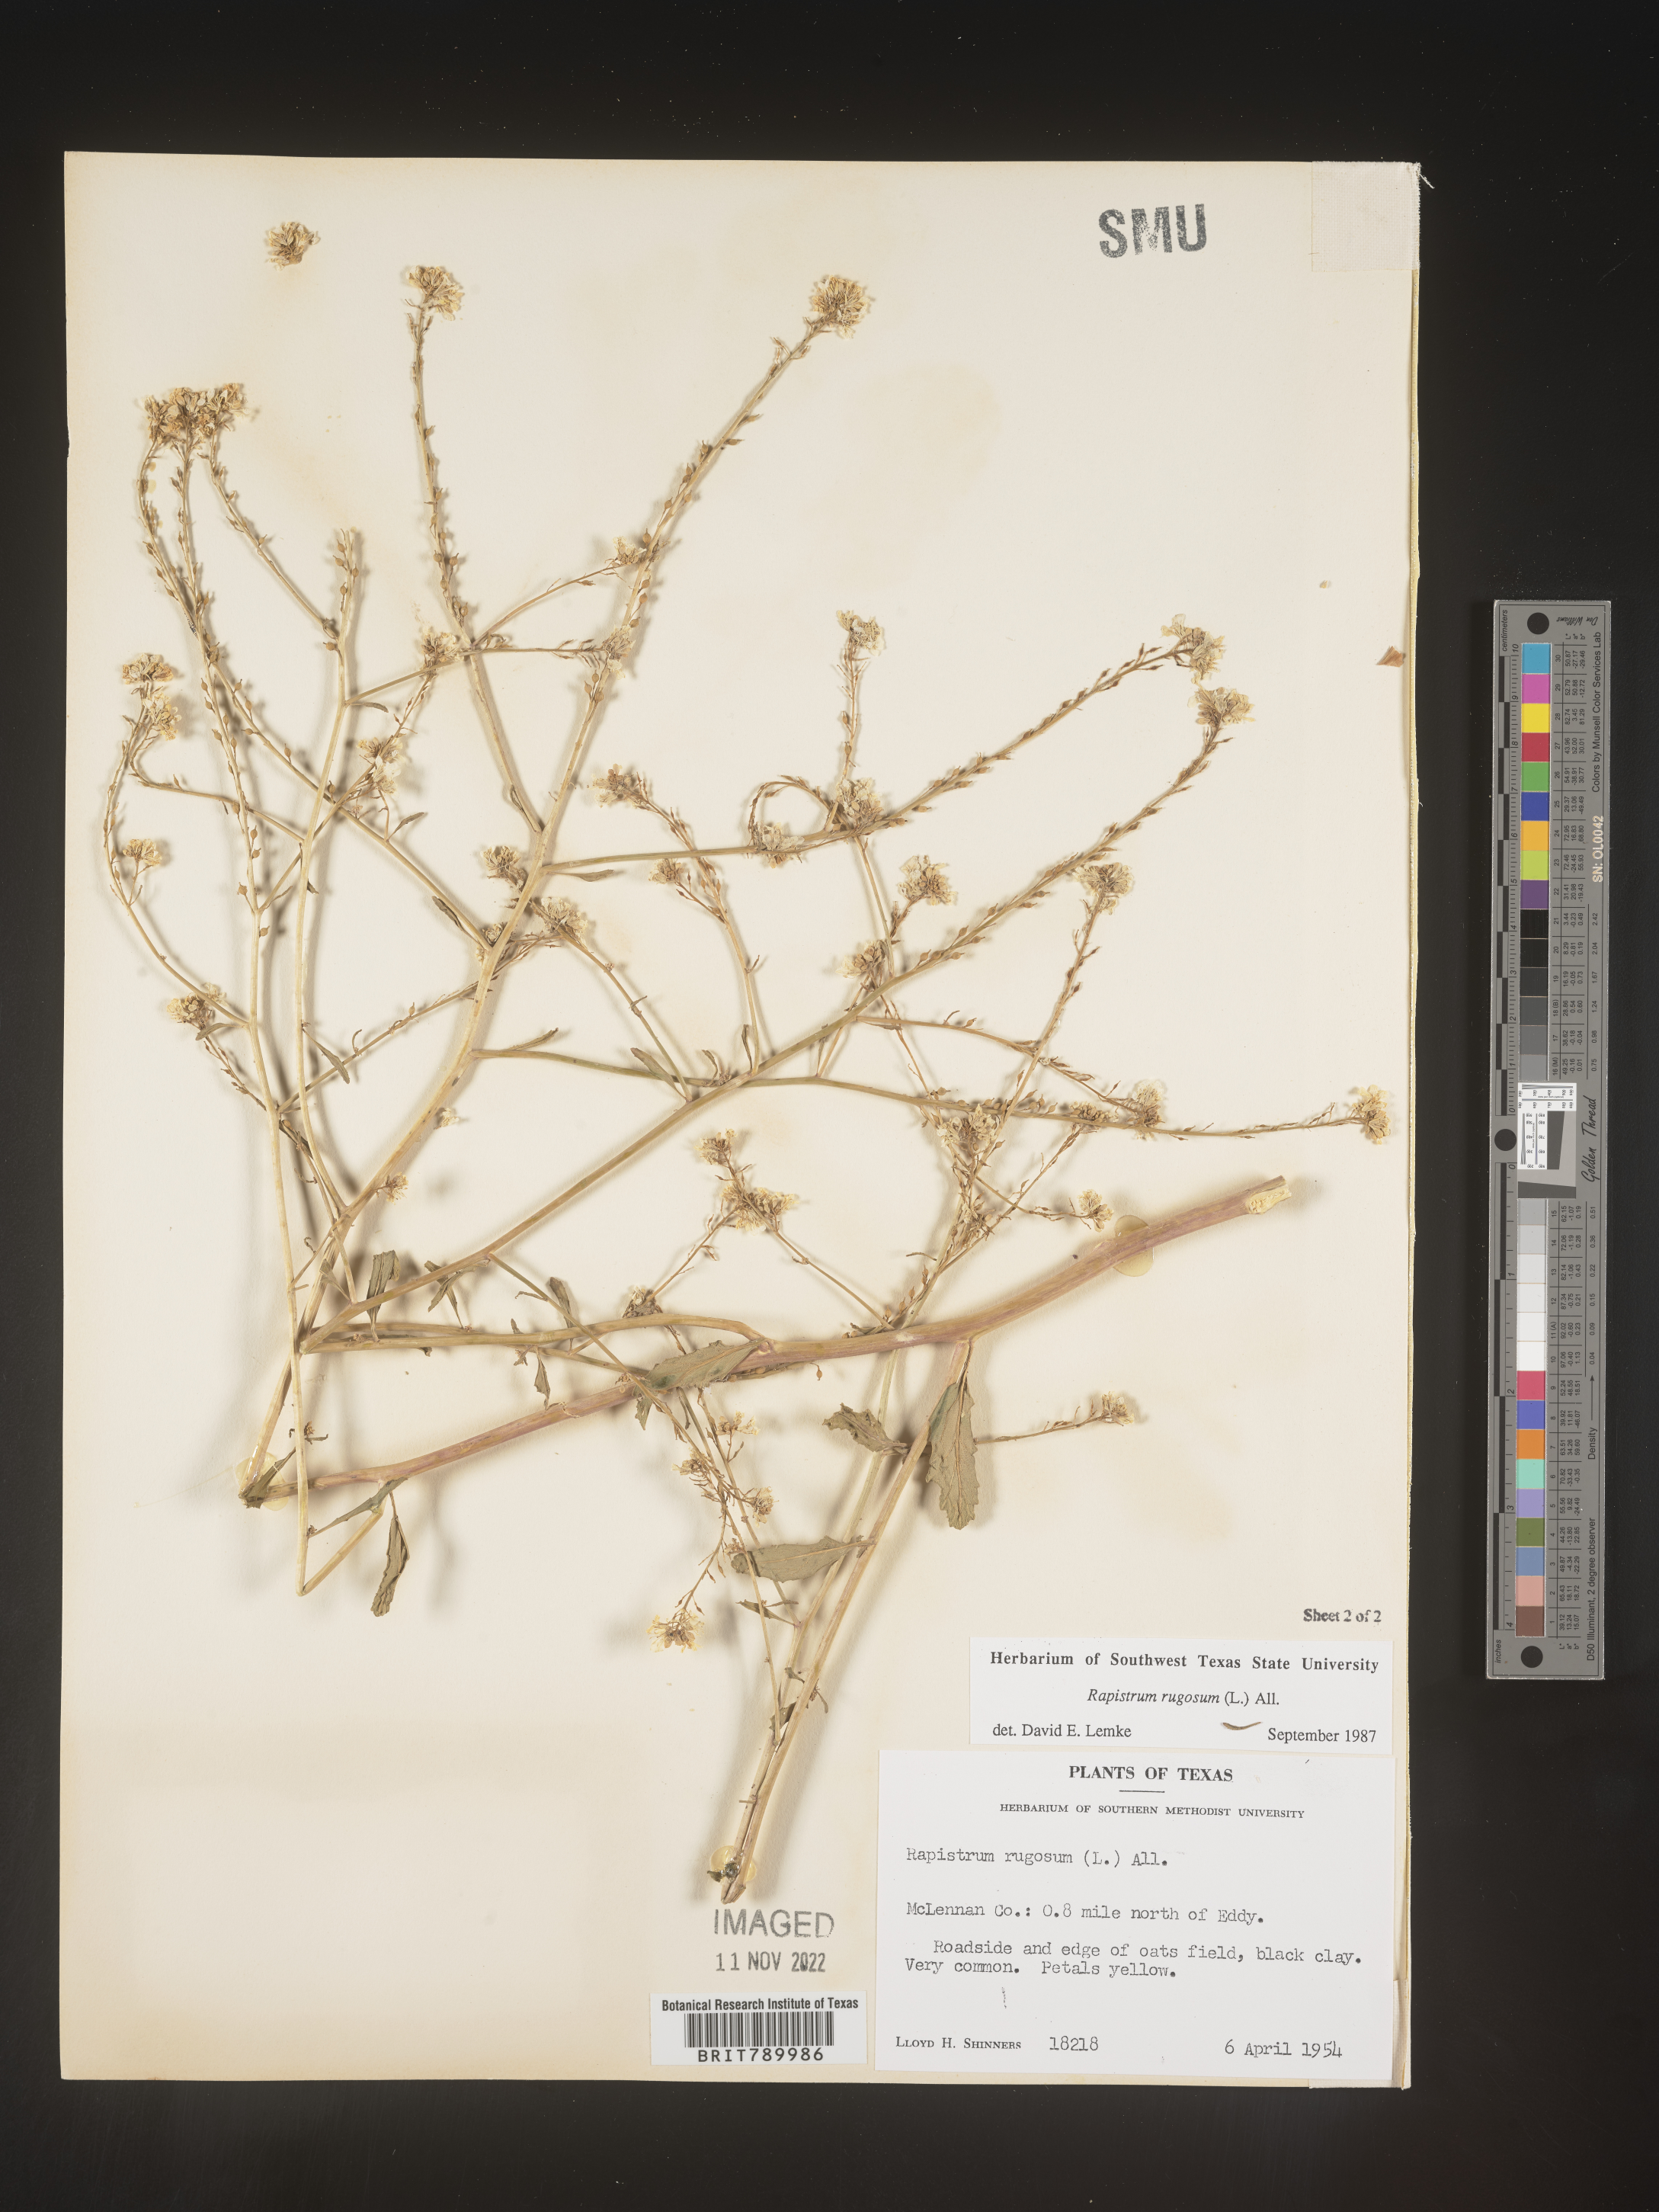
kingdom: Plantae
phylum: Tracheophyta
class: Magnoliopsida
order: Brassicales
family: Brassicaceae
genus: Rapistrum
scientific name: Rapistrum rugosum
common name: Annual bastardcabbage
